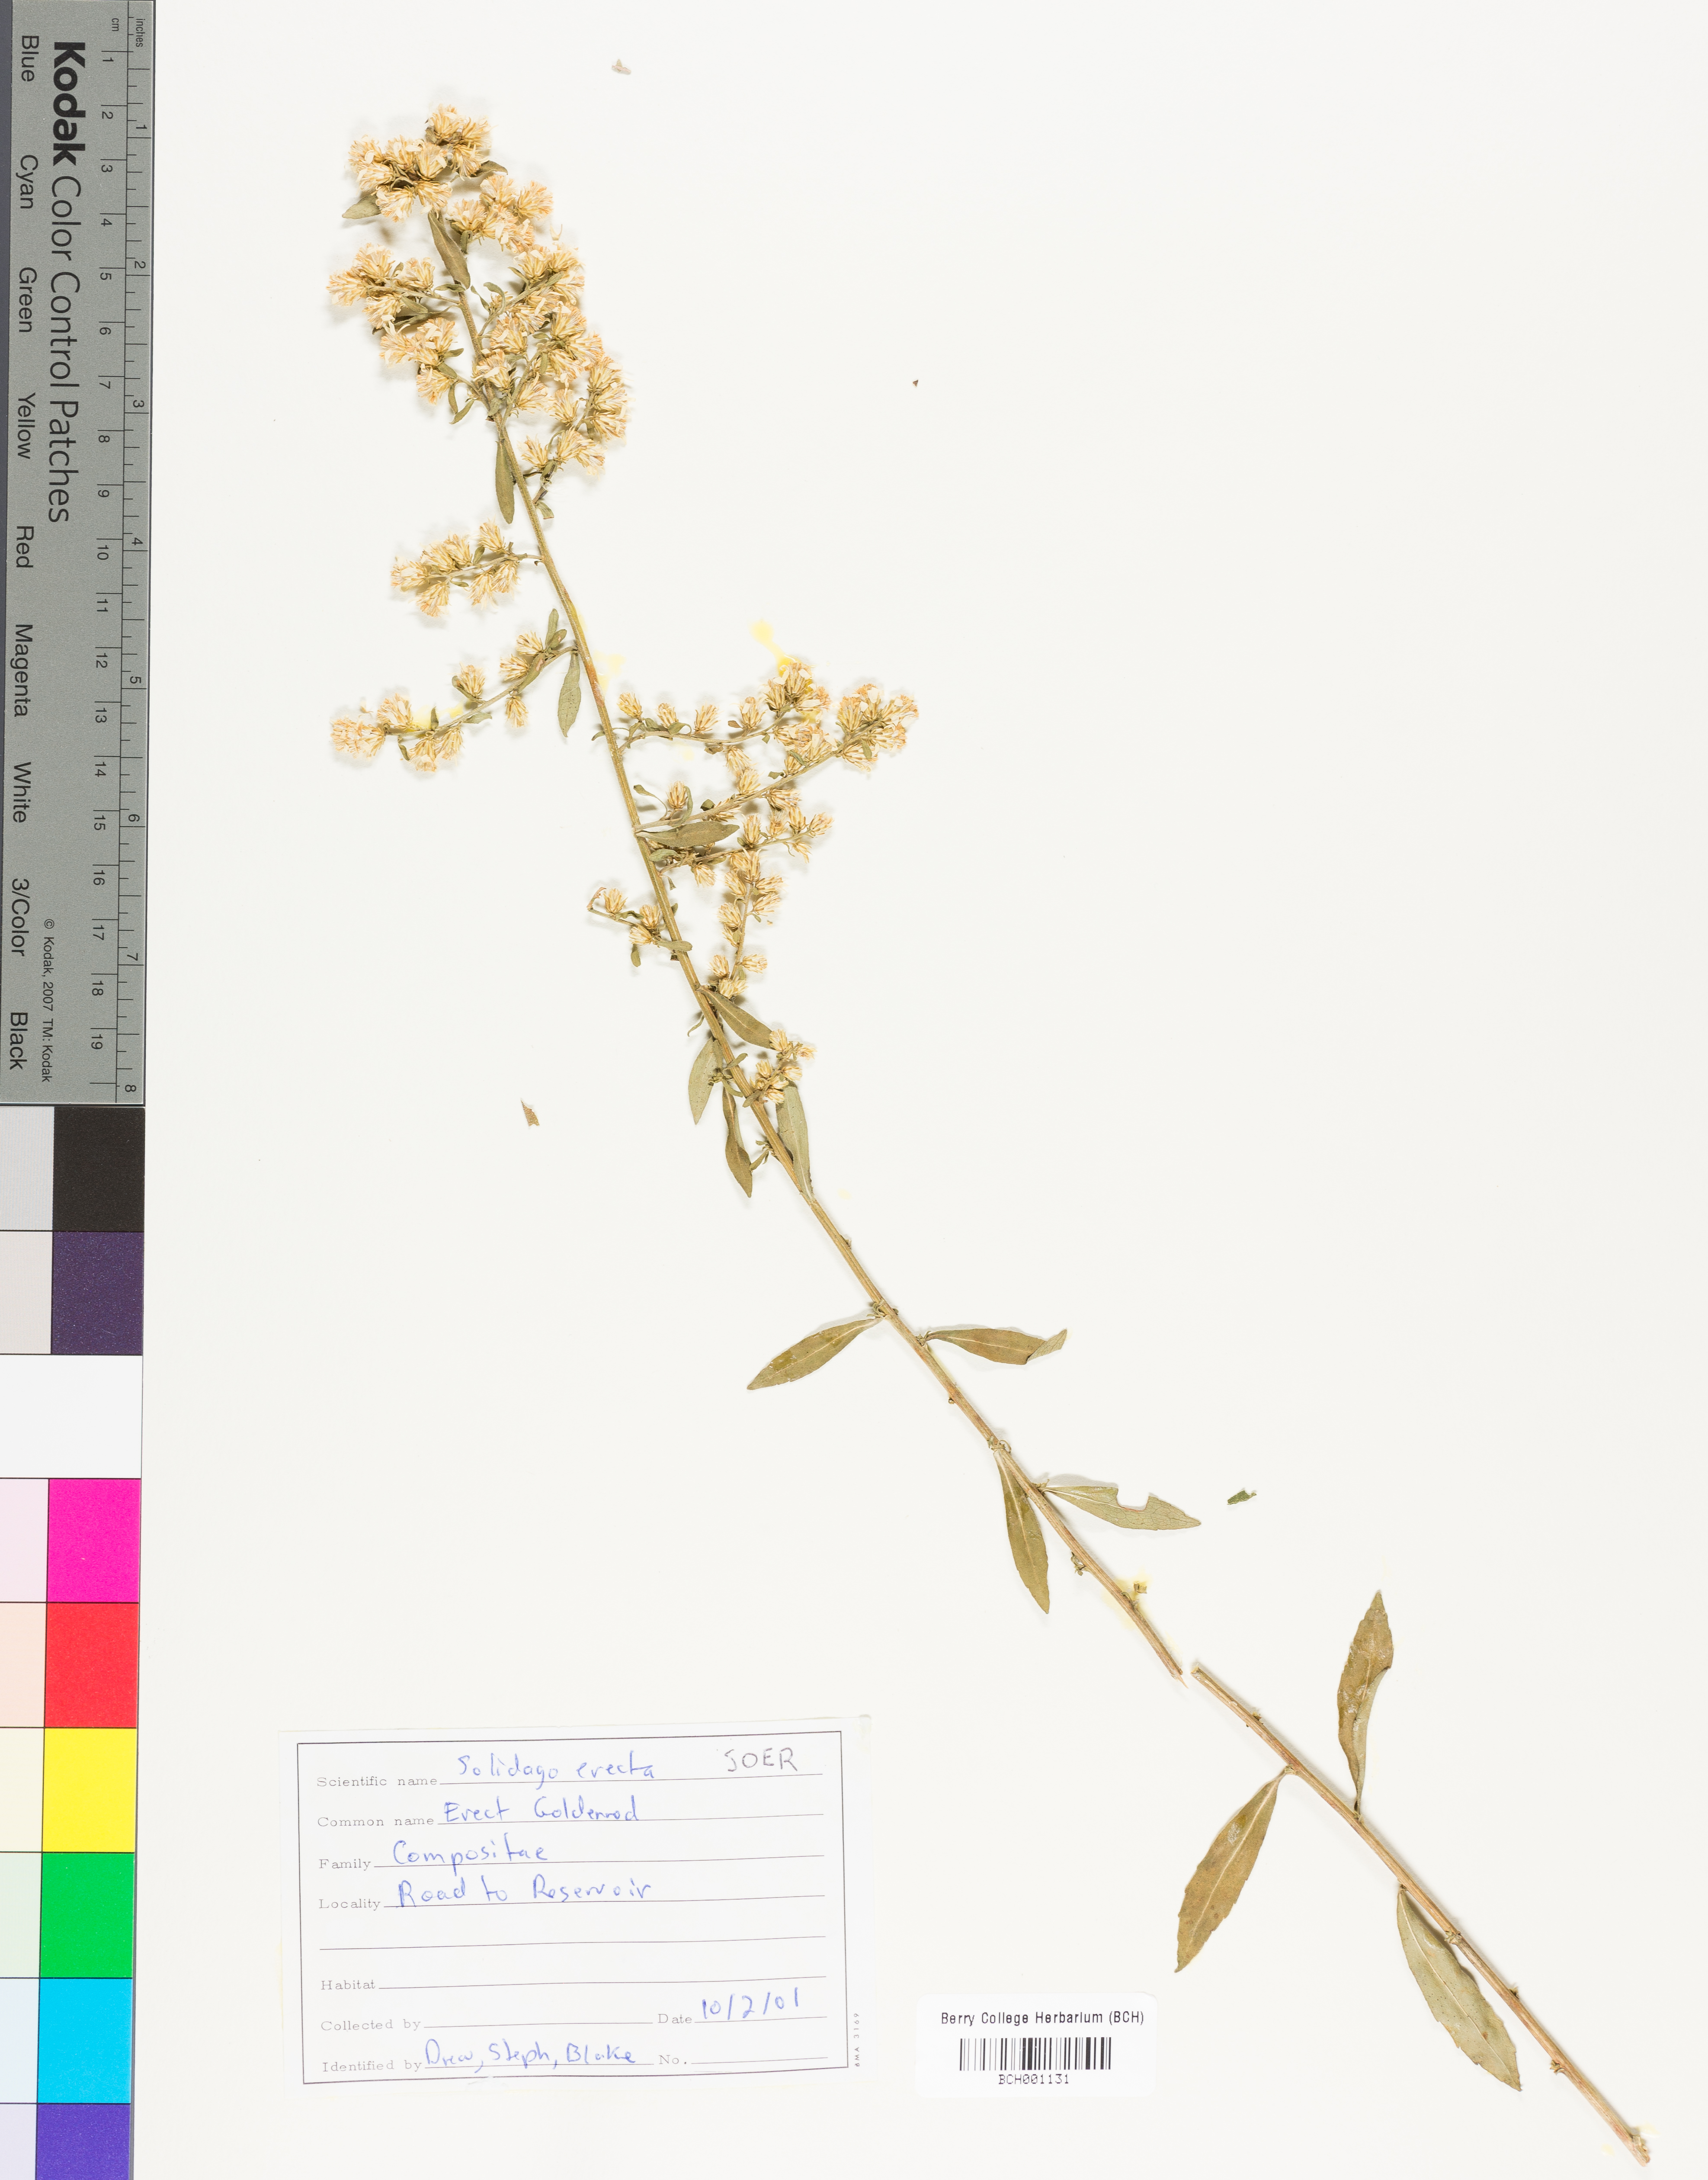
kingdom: Plantae
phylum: Tracheophyta
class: Magnoliopsida
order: Asterales
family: Asteraceae
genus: Solidago
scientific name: Solidago erecta
